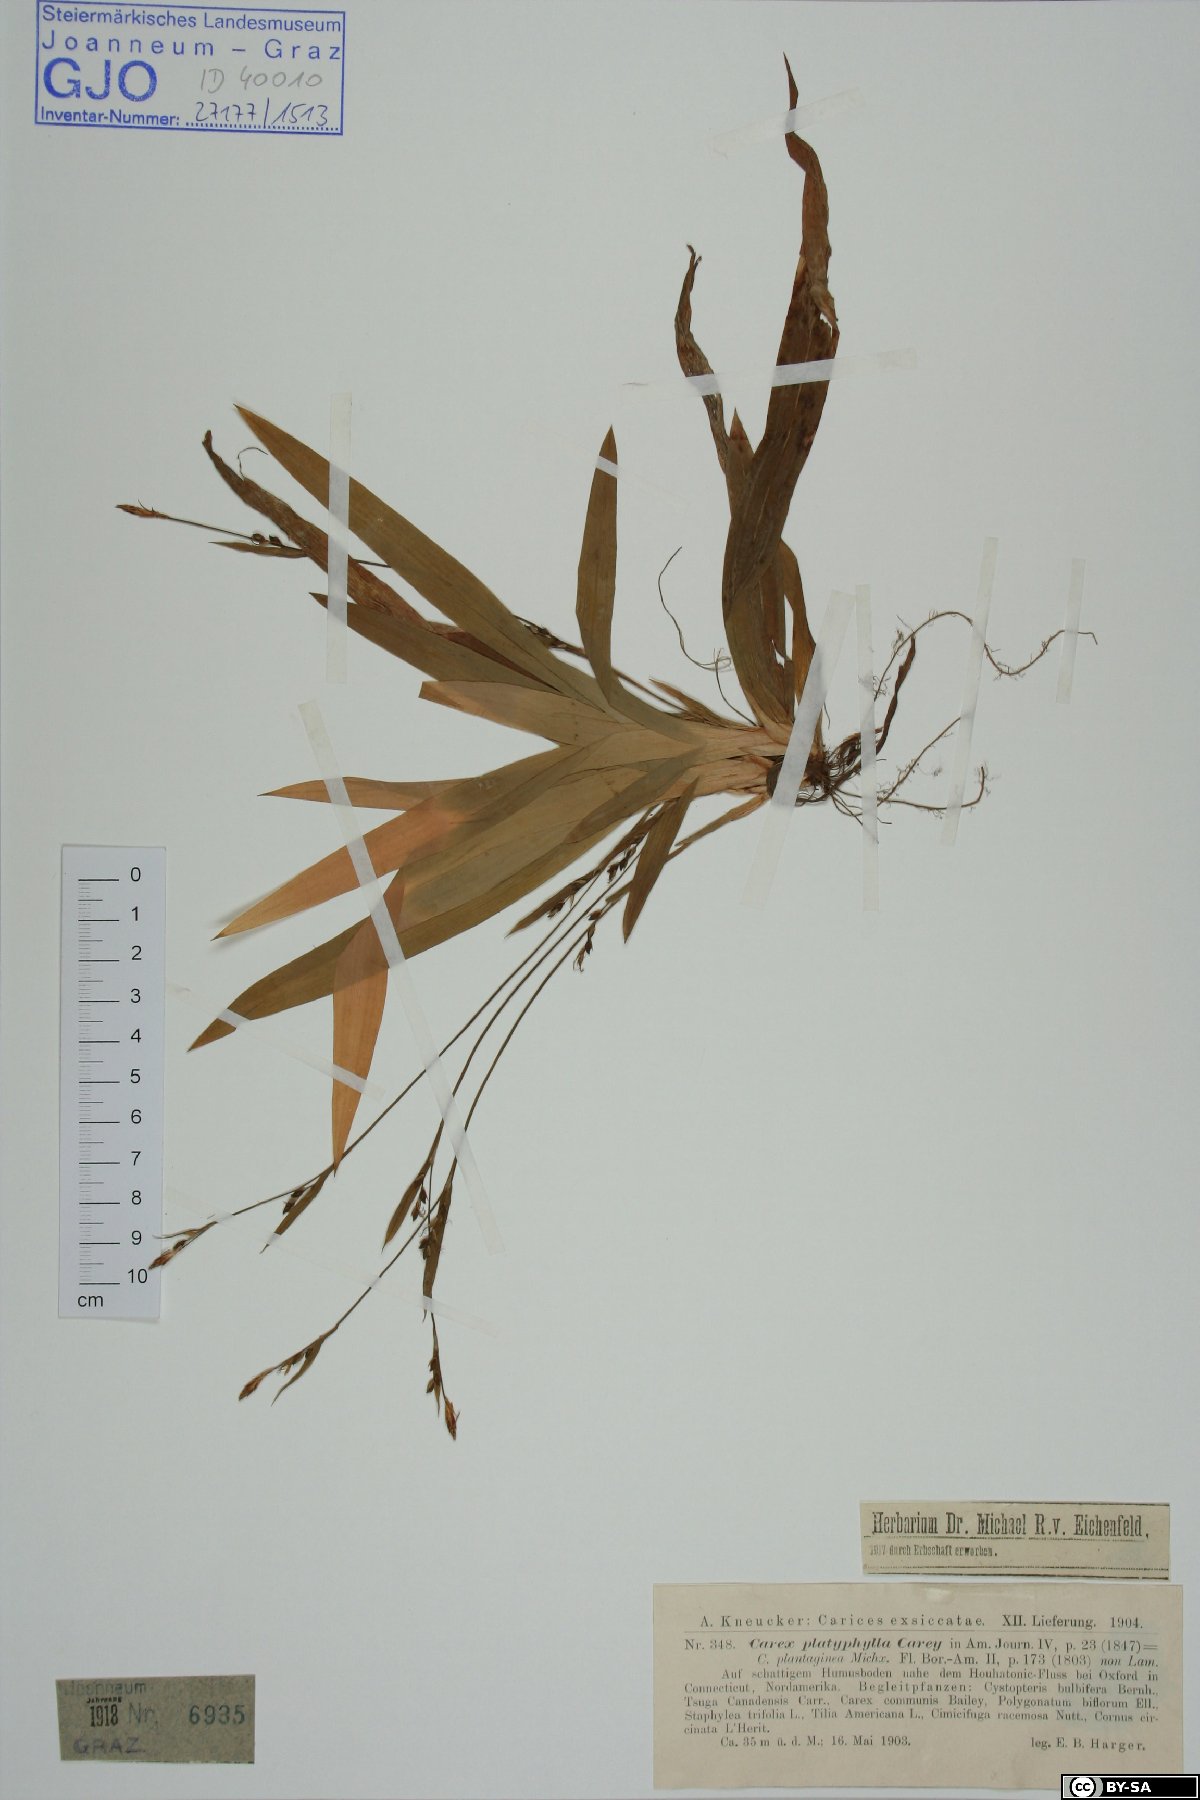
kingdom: Plantae
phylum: Tracheophyta
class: Liliopsida
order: Poales
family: Cyperaceae
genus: Carex
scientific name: Carex platyphylla
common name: Broad-leaved sedge
